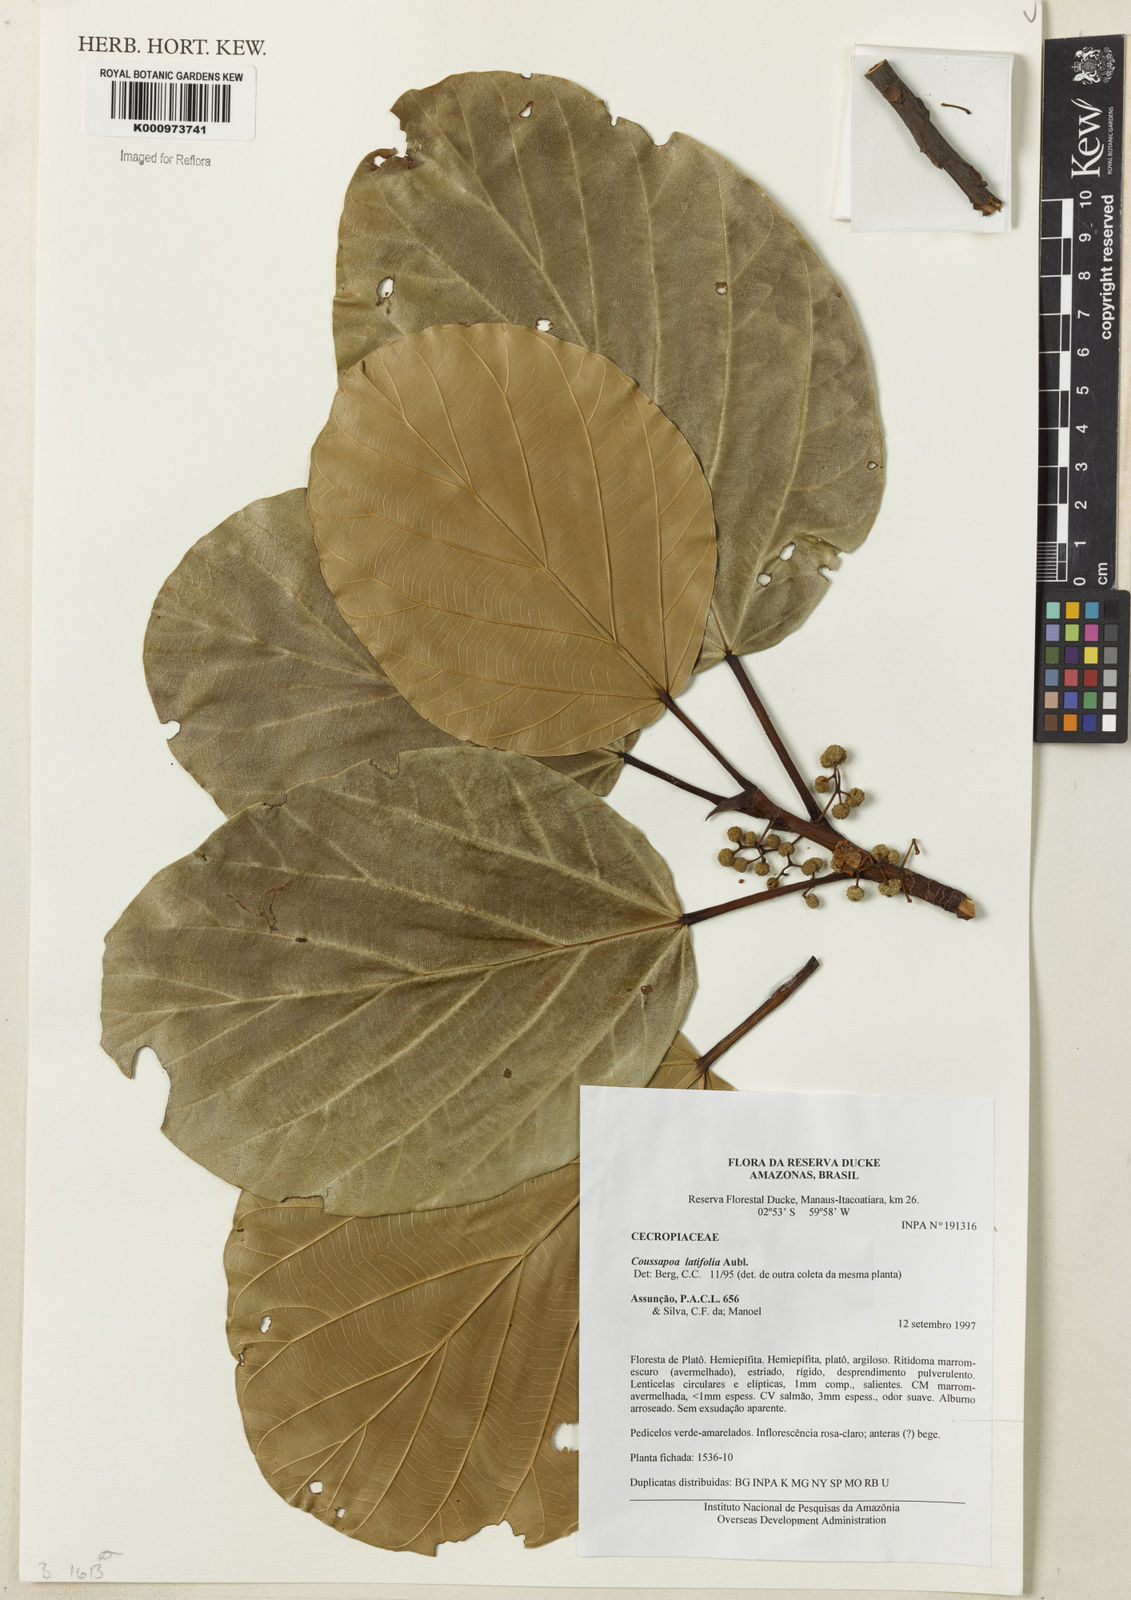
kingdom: Plantae
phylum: Tracheophyta
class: Magnoliopsida
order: Rosales
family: Urticaceae
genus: Coussapoa
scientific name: Coussapoa
